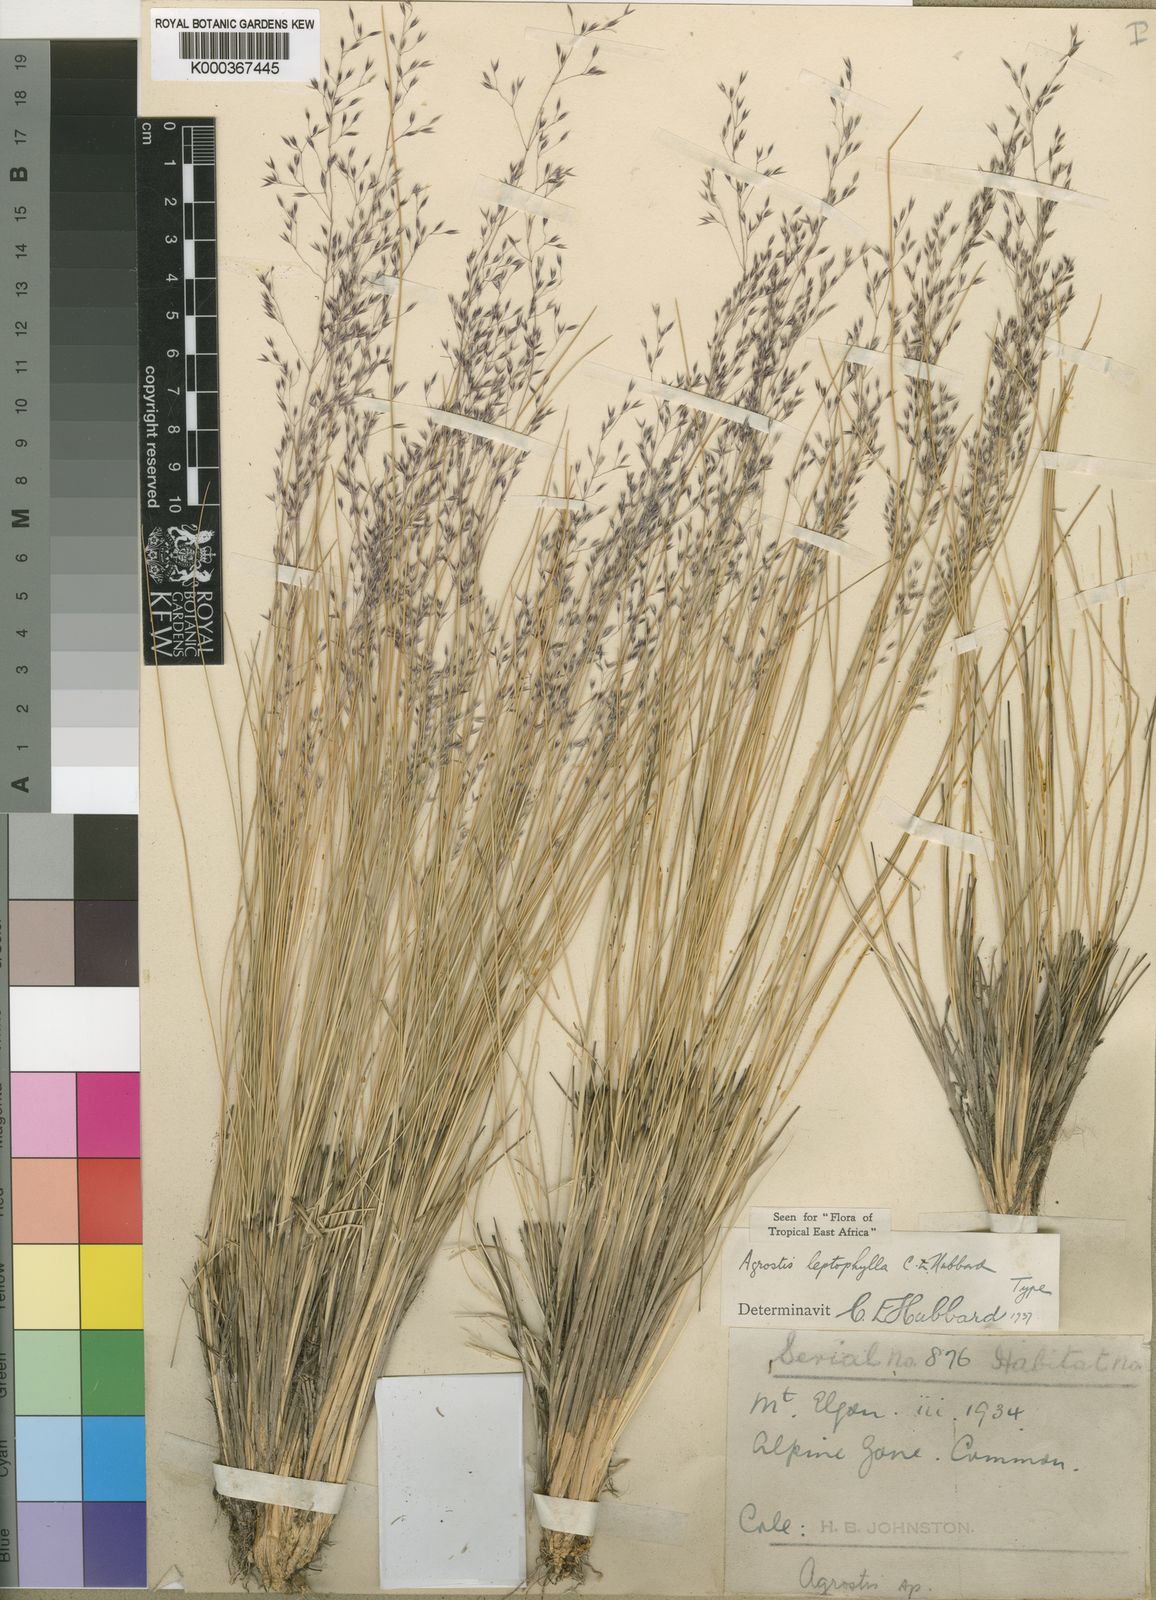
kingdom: Plantae
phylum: Tracheophyta
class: Liliopsida
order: Poales
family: Poaceae
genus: Agrostis
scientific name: Agrostis gracilifolia
